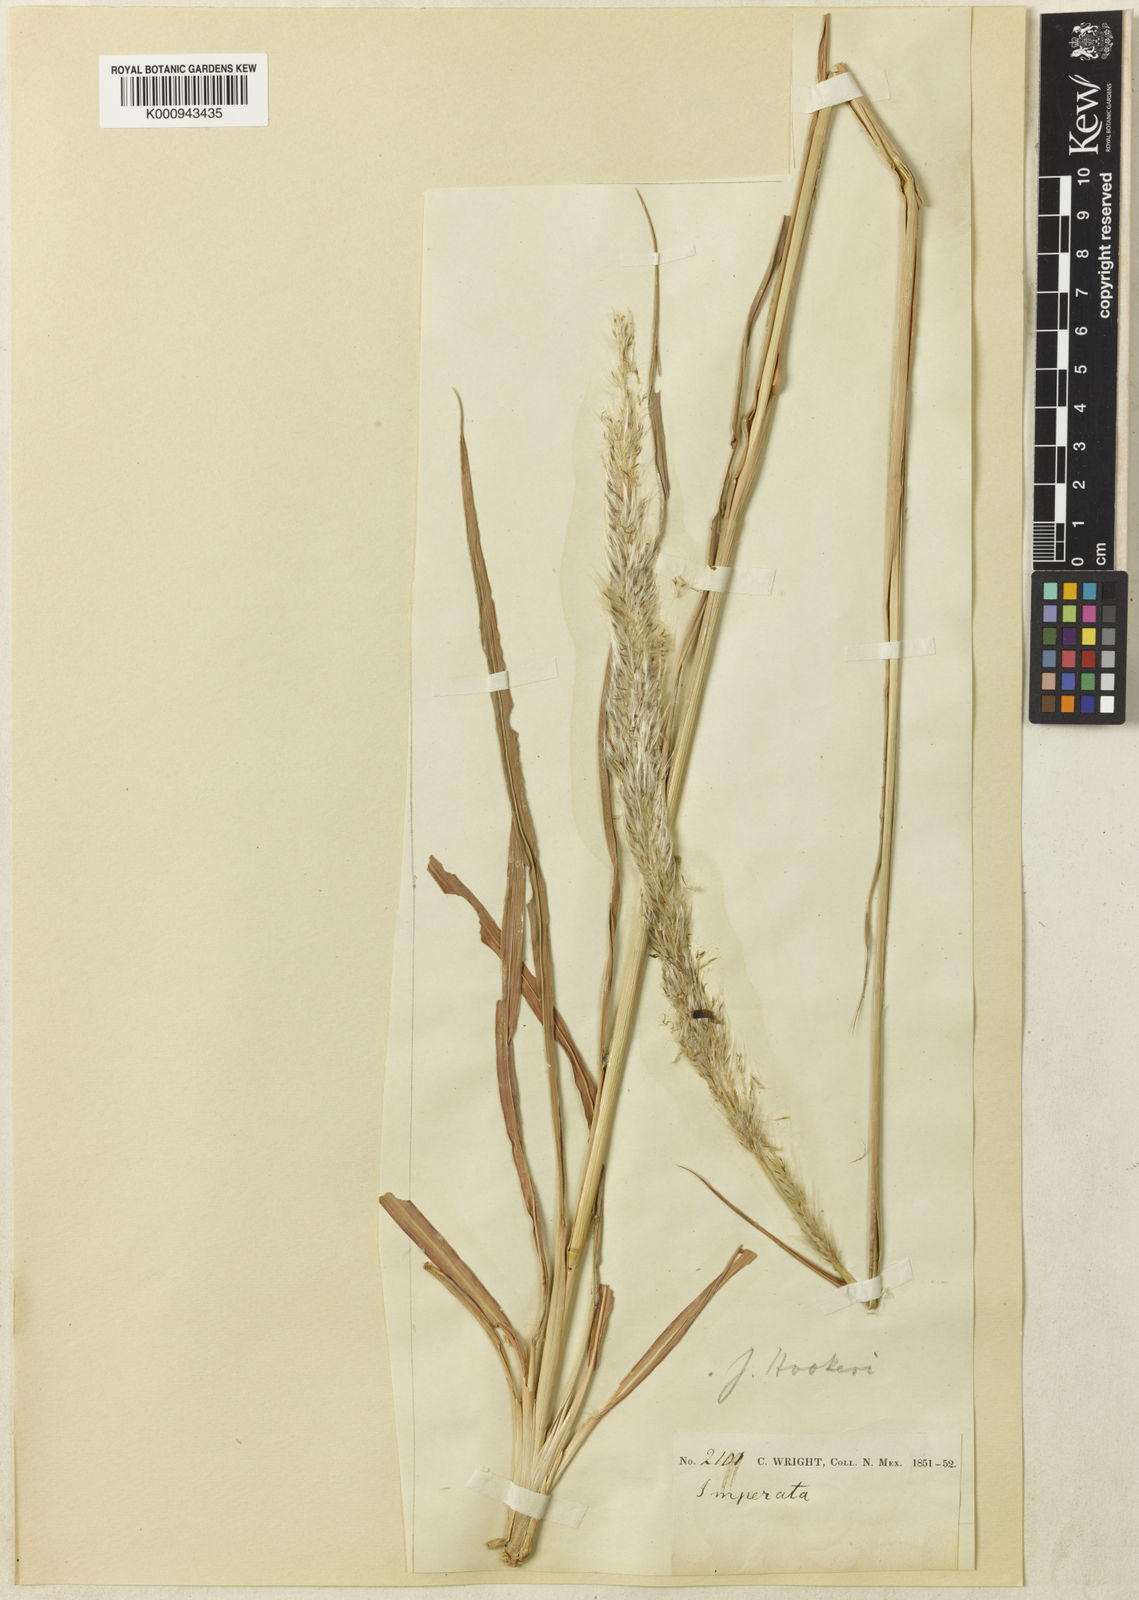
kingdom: Plantae
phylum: Tracheophyta
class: Liliopsida
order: Poales
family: Poaceae
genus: Imperata
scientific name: Imperata brevifolia
